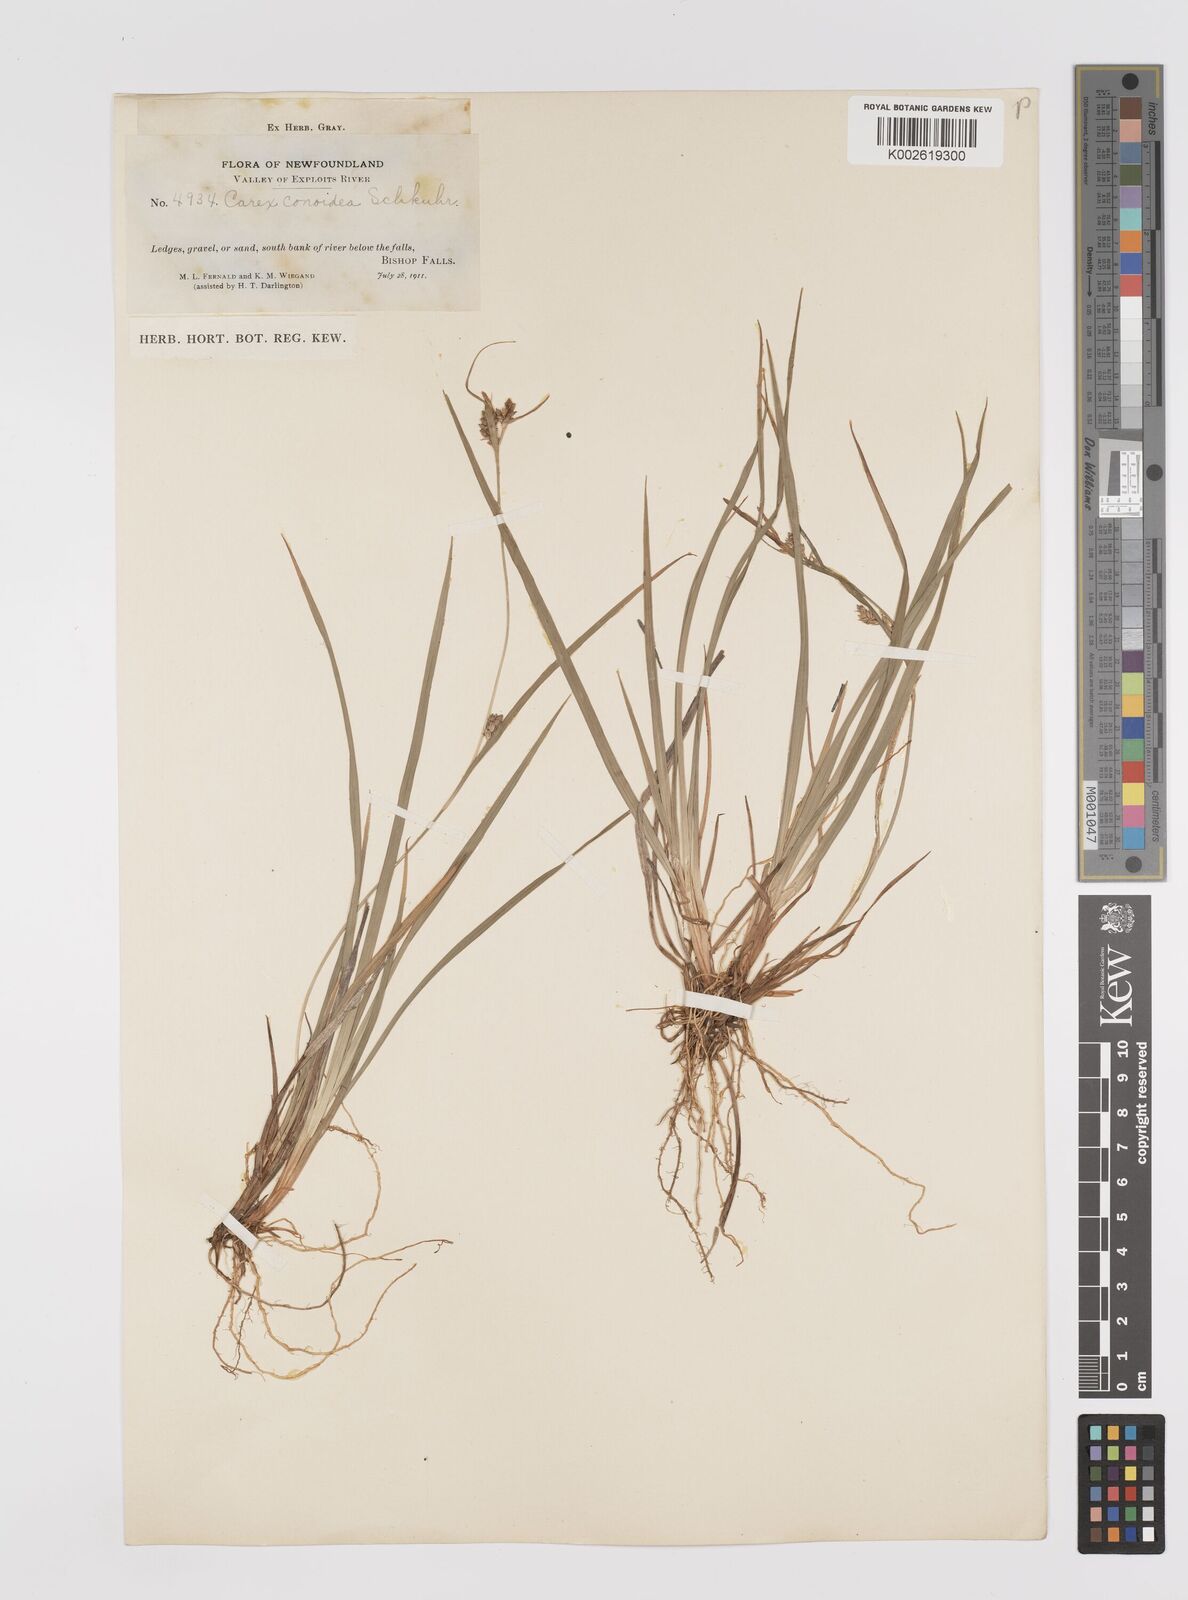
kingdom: Plantae
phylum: Tracheophyta
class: Liliopsida
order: Poales
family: Cyperaceae
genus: Carex
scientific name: Carex conoidea
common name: Cone shaped sedge
